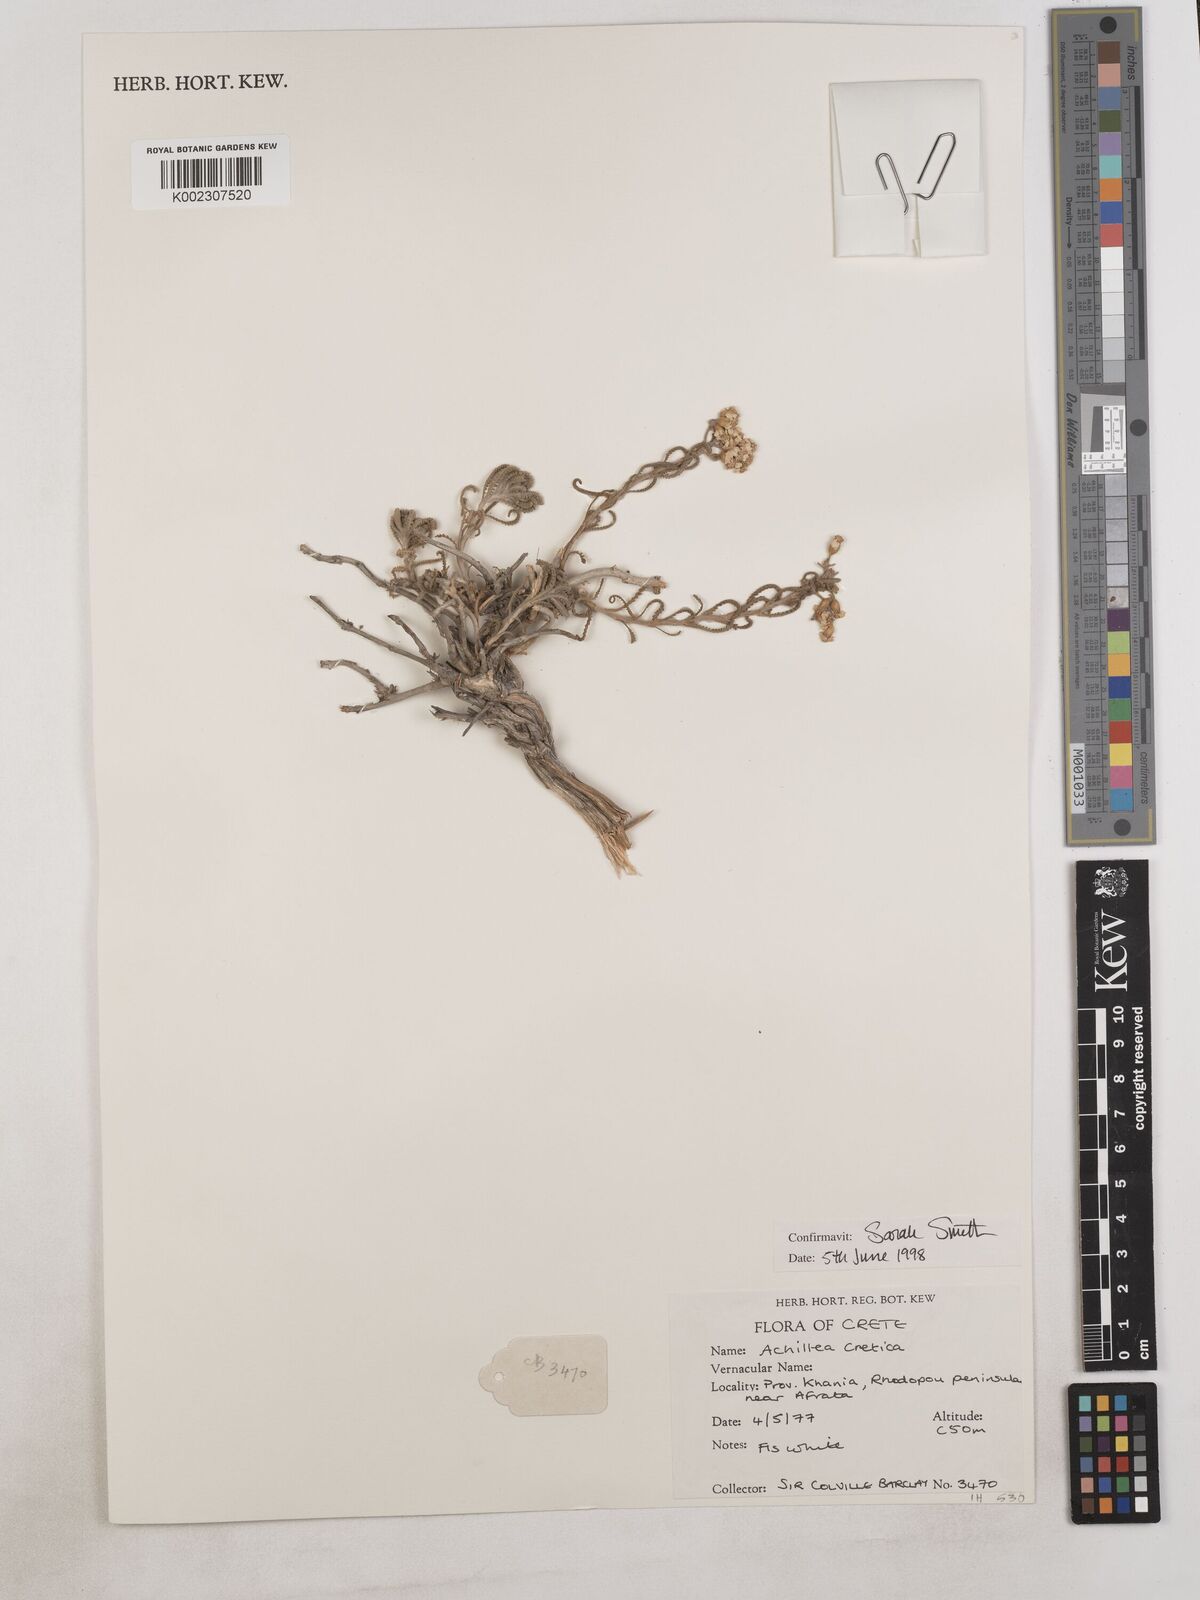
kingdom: Plantae
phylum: Tracheophyta
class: Magnoliopsida
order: Asterales
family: Asteraceae
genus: Achillea
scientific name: Achillea cretica
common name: Chamomile-leaved lavender-cotton
